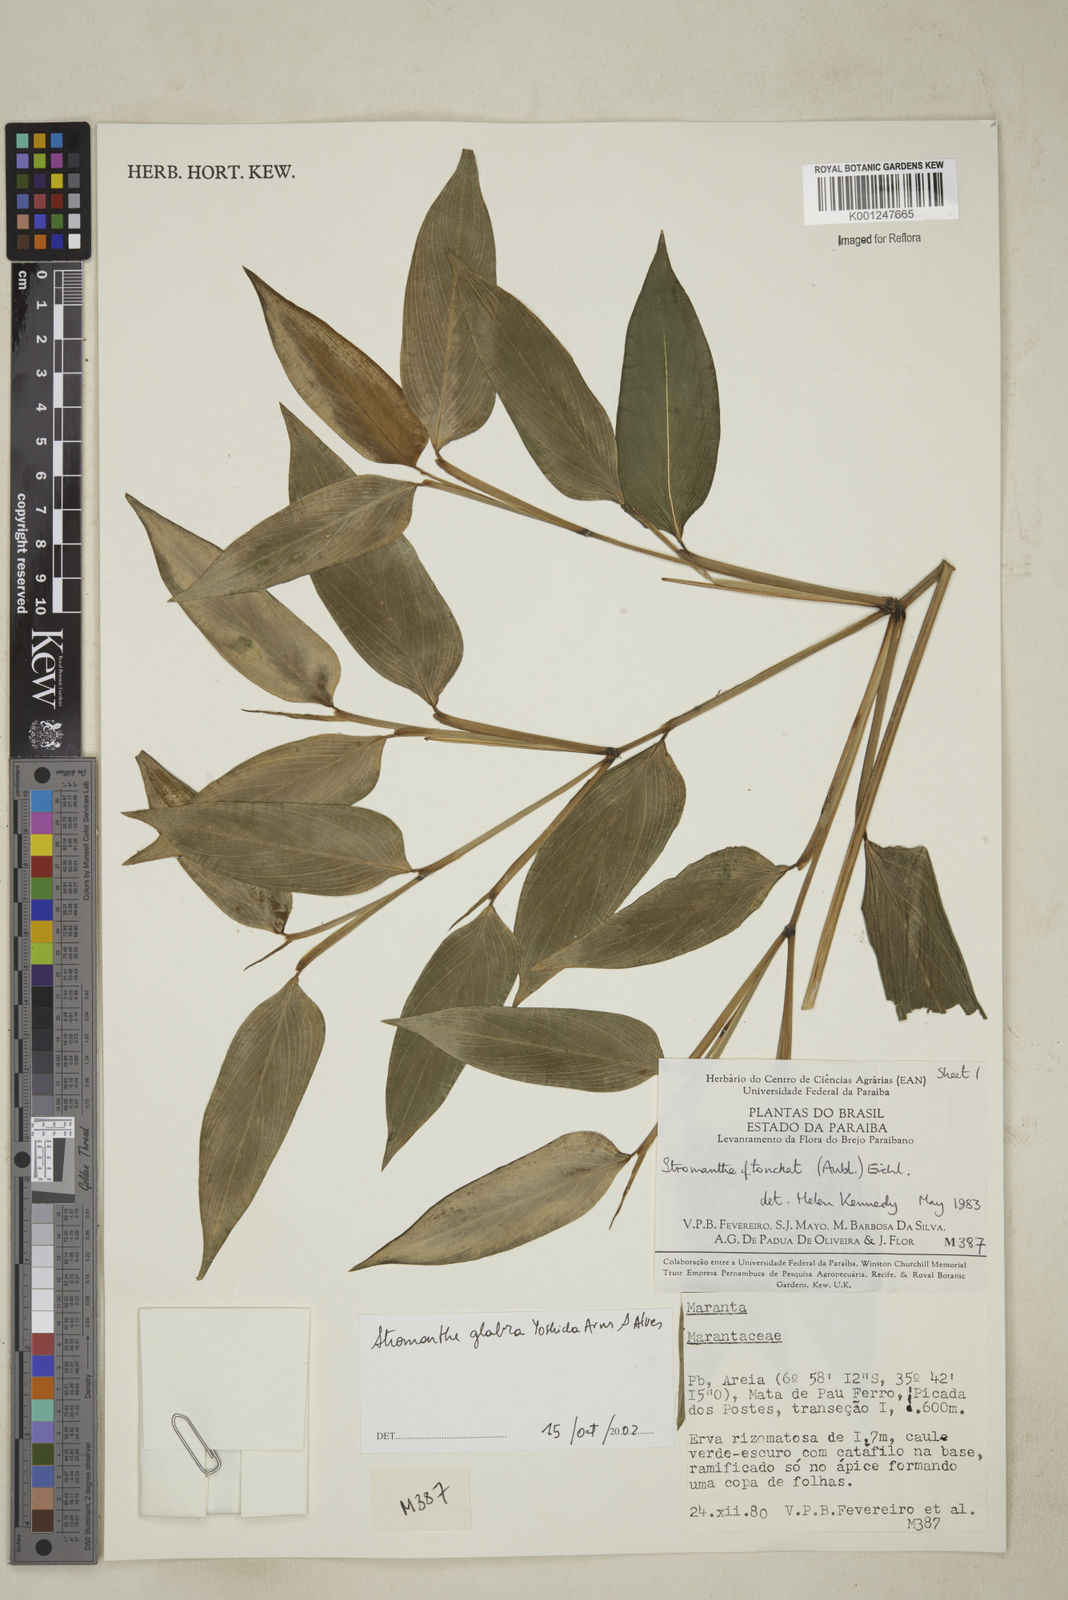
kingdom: Plantae
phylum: Tracheophyta
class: Liliopsida
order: Zingiberales
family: Marantaceae
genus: Stromanthe
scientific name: Stromanthe tonckat
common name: Stromanthe
